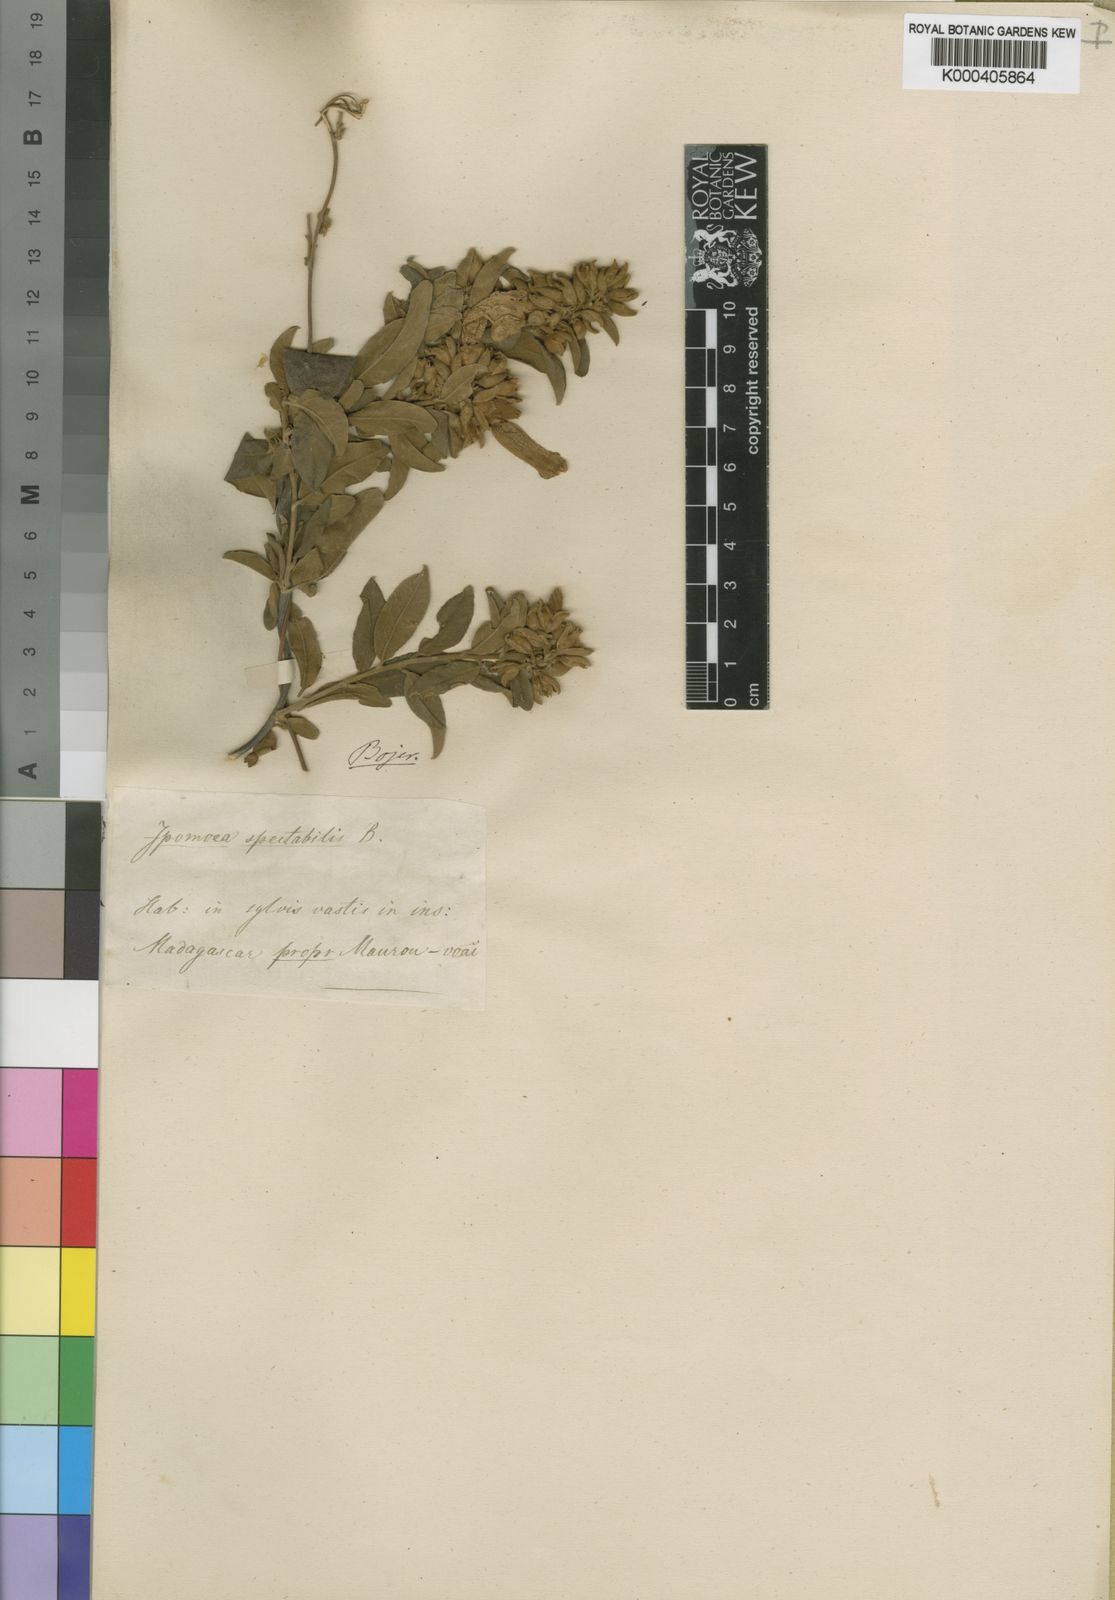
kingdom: Plantae
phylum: Tracheophyta
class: Magnoliopsida
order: Solanales
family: Convolvulaceae
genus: Bonamia
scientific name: Bonamia spectabilis
